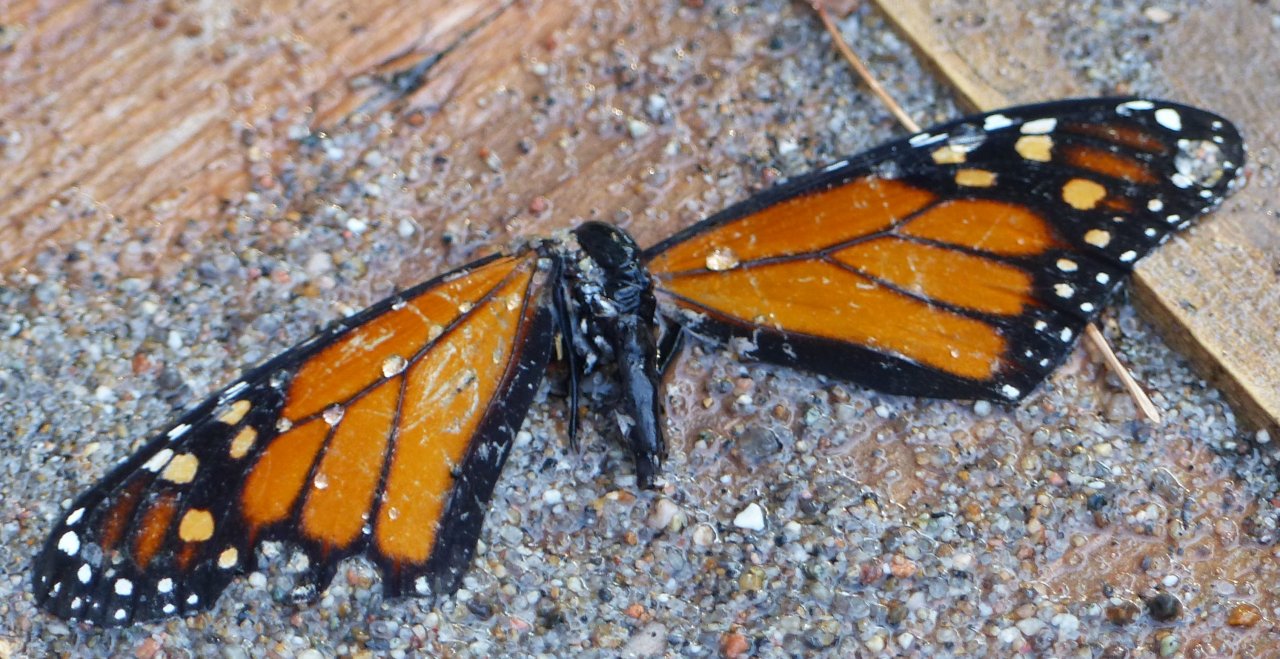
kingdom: Animalia
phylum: Arthropoda
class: Insecta
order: Lepidoptera
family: Nymphalidae
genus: Danaus
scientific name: Danaus plexippus
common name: Monarch
